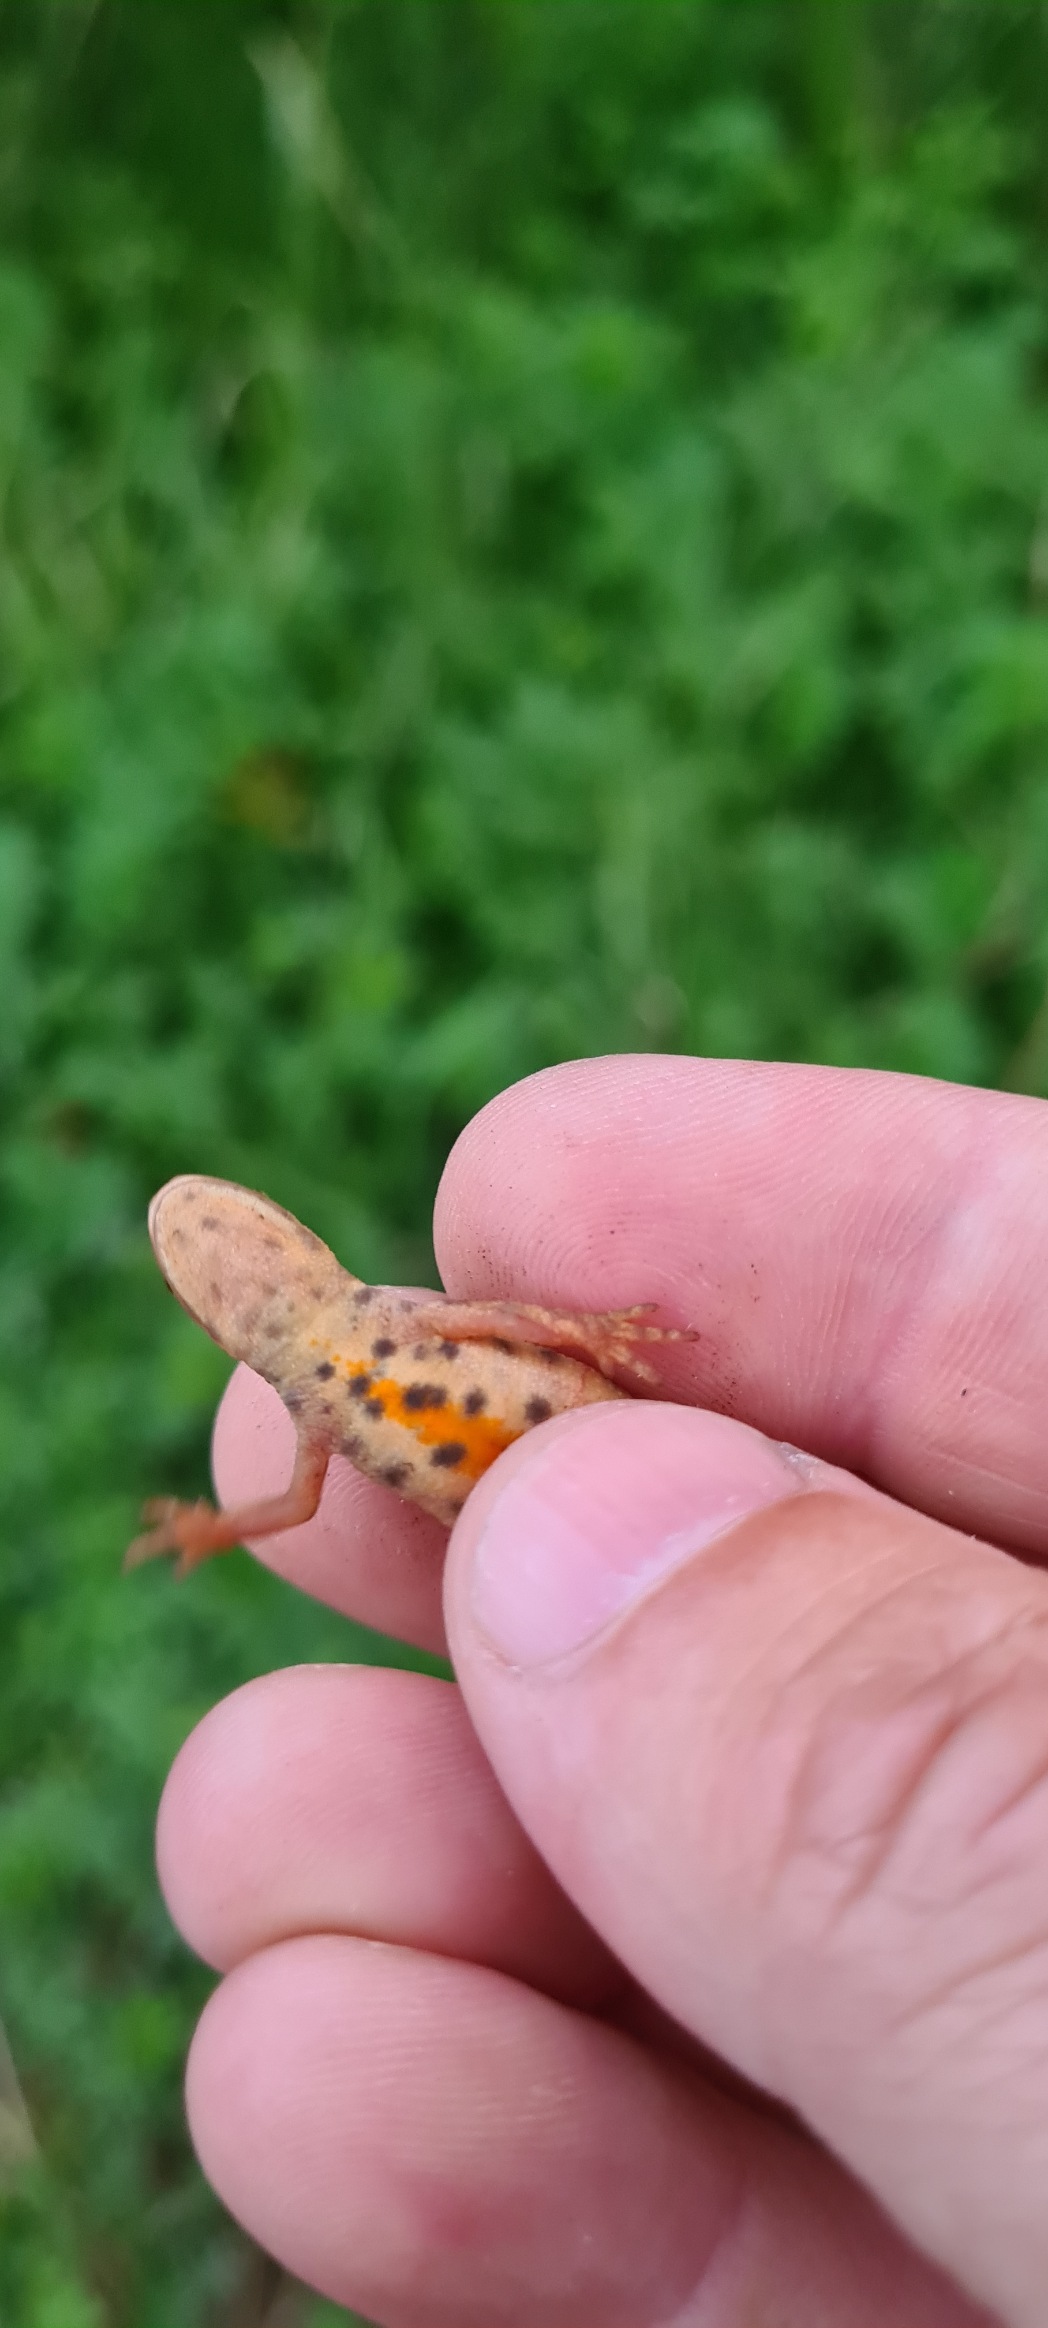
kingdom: Animalia
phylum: Chordata
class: Amphibia
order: Caudata
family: Salamandridae
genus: Lissotriton
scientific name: Lissotriton vulgaris
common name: Lille vandsalamander
